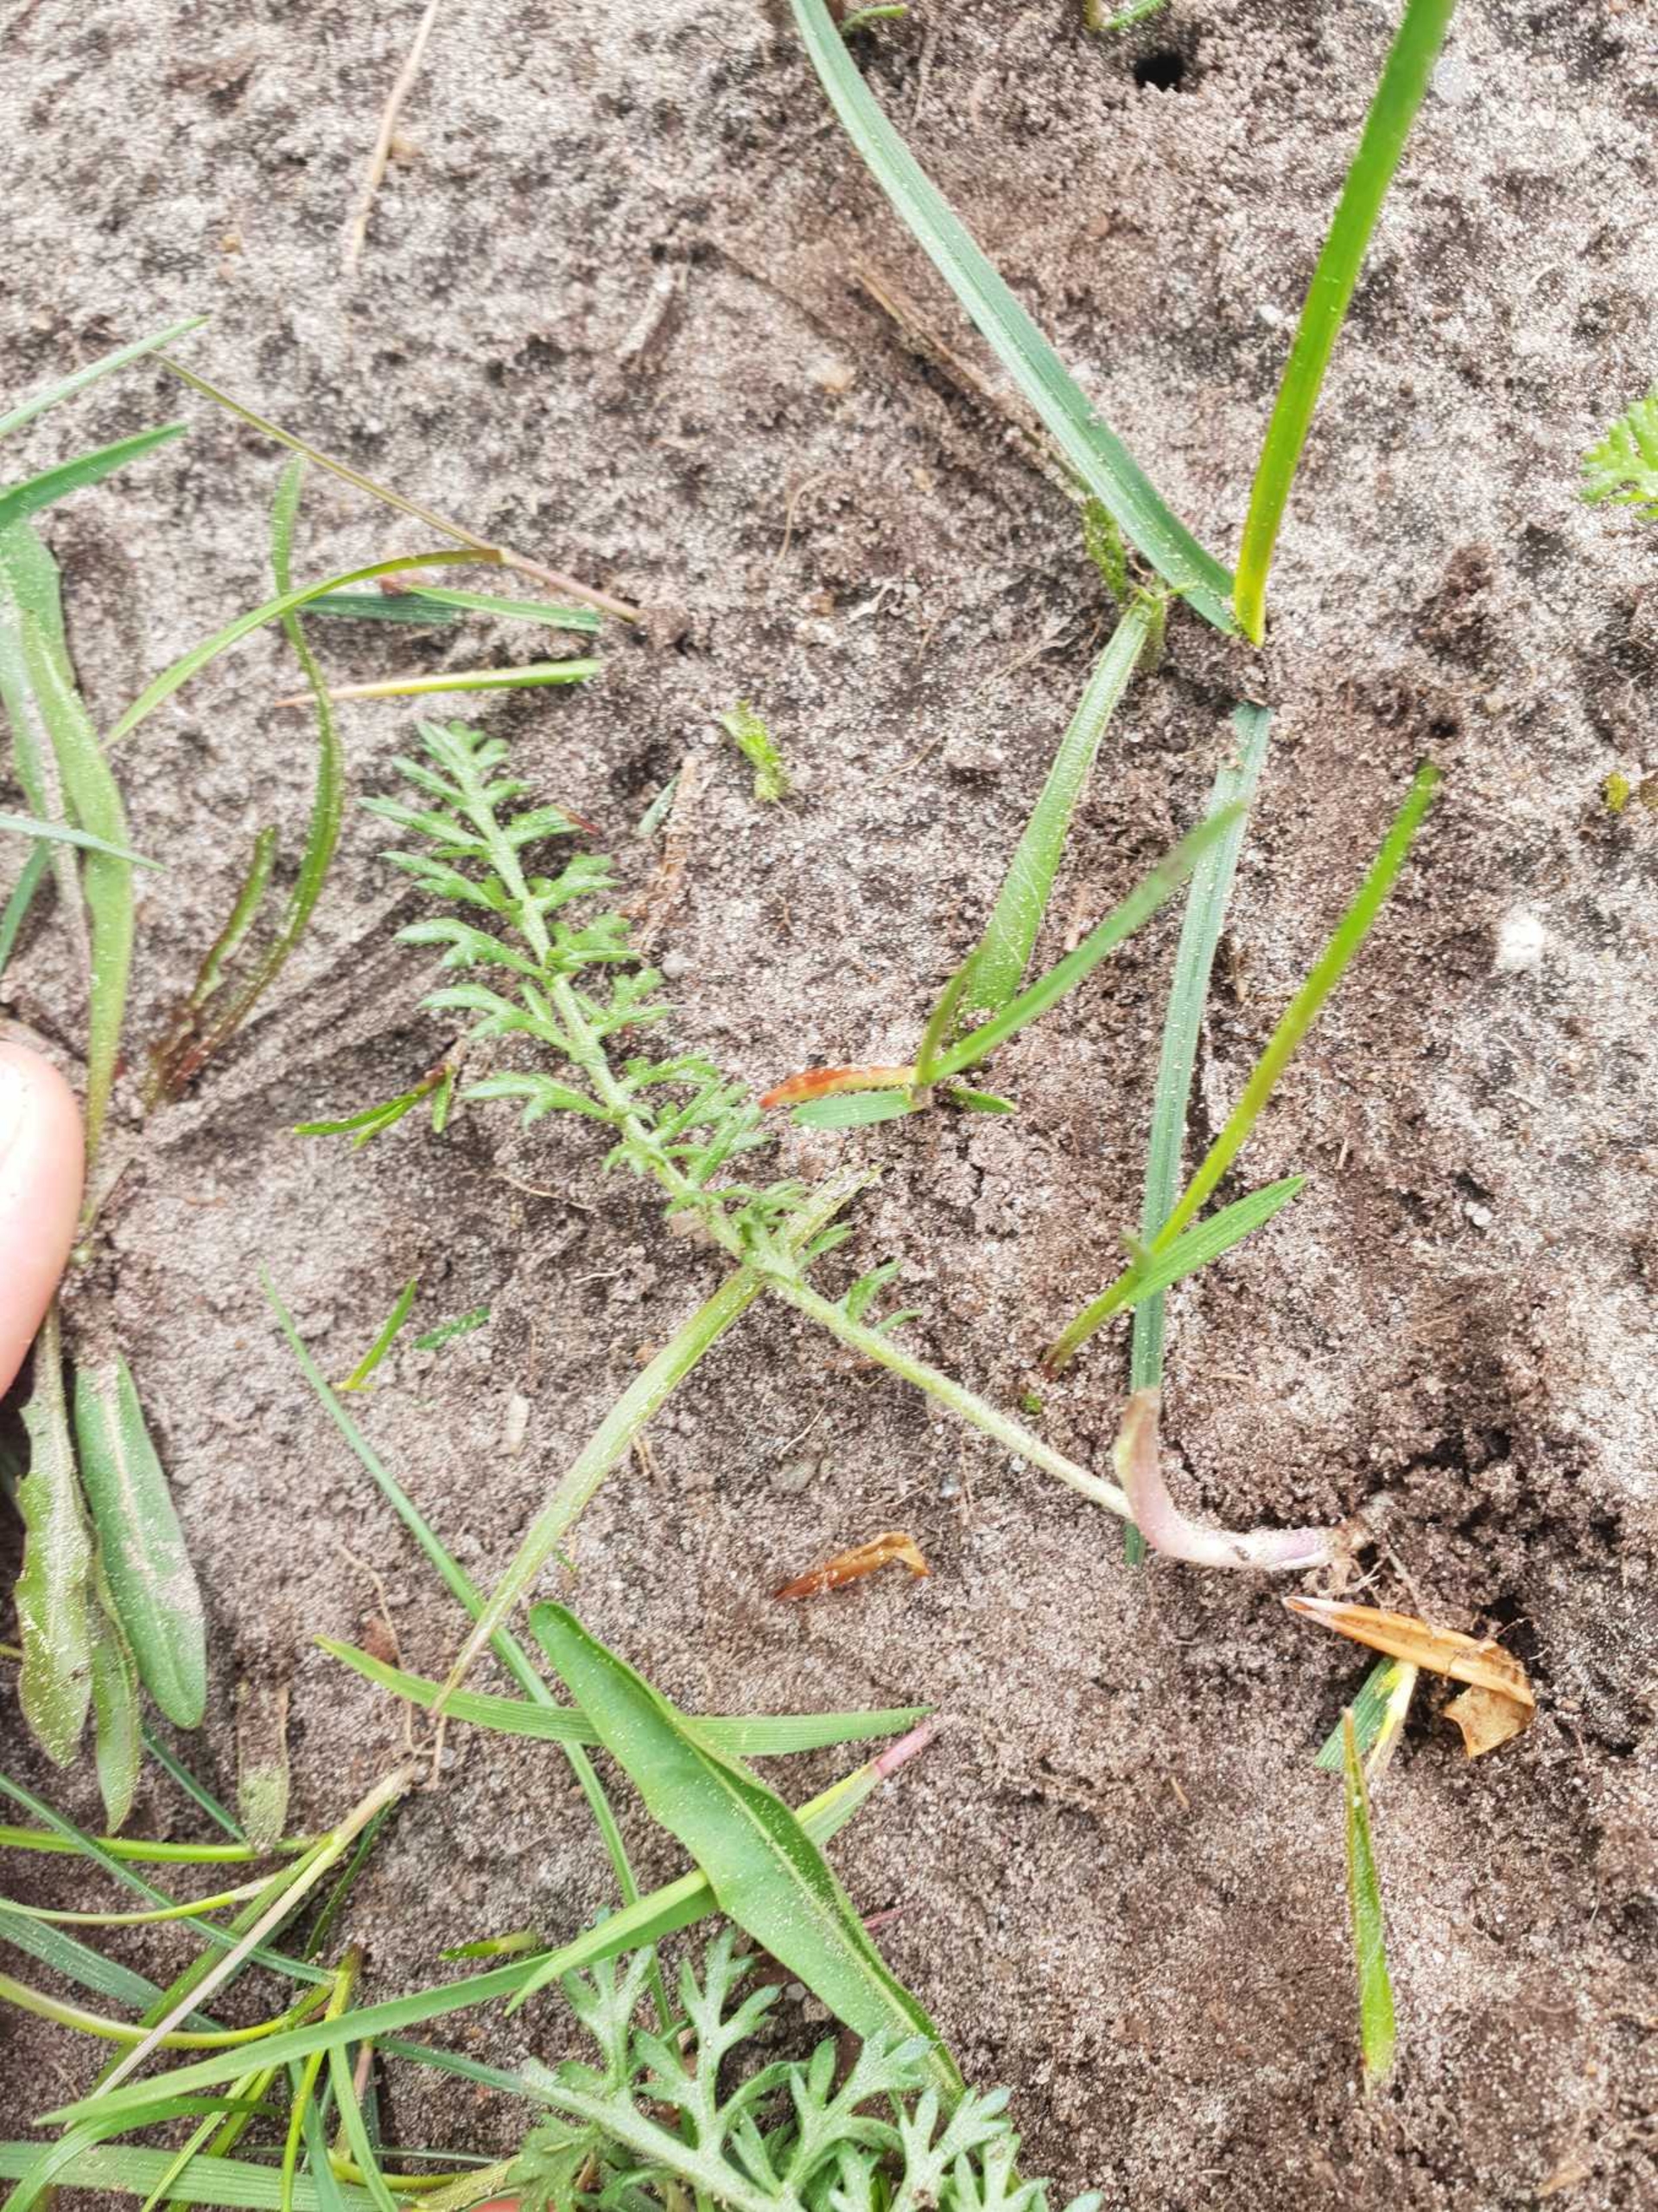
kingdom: Plantae
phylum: Tracheophyta
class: Magnoliopsida
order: Asterales
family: Asteraceae
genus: Achillea
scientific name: Achillea millefolium
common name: Almindelig røllike (underart)
